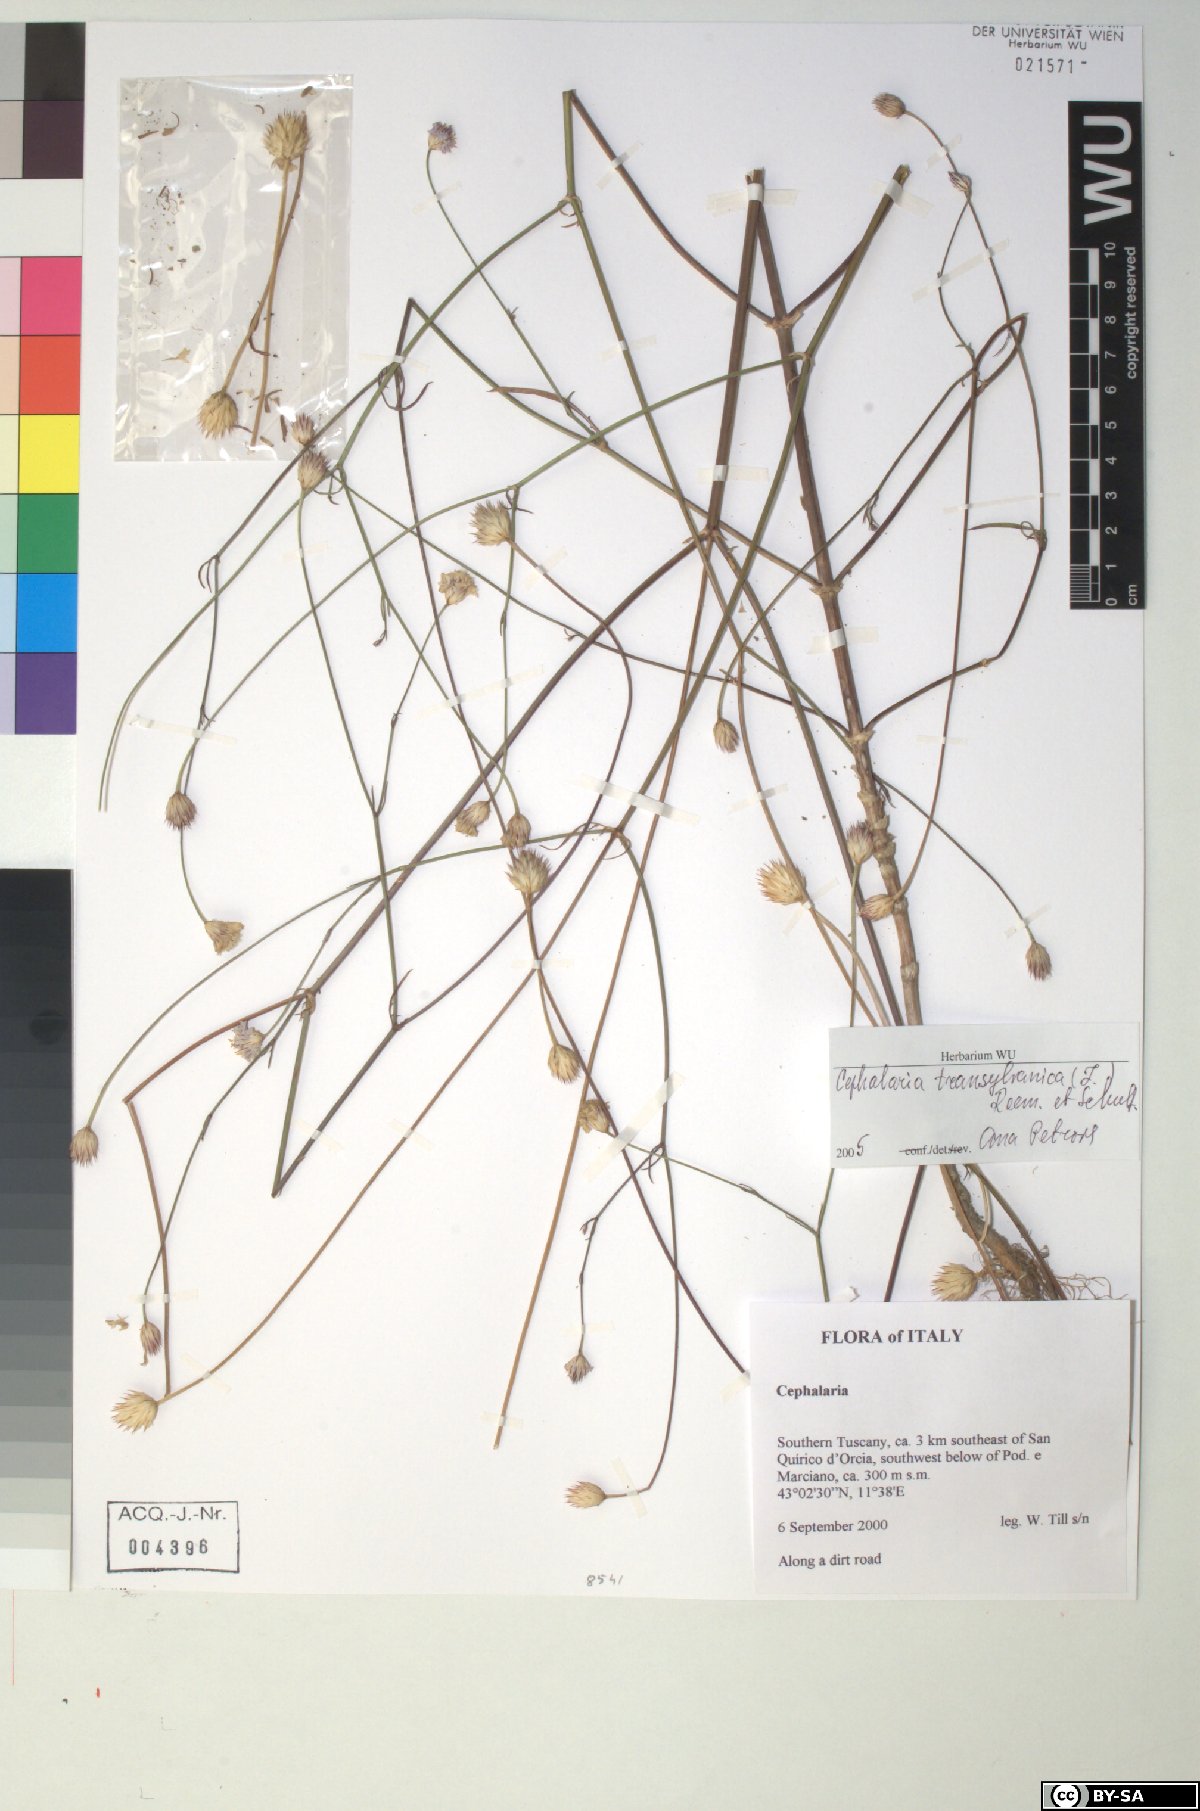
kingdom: Plantae
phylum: Tracheophyta
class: Magnoliopsida
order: Dipsacales
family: Caprifoliaceae
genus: Cephalaria
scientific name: Cephalaria transsylvanica
